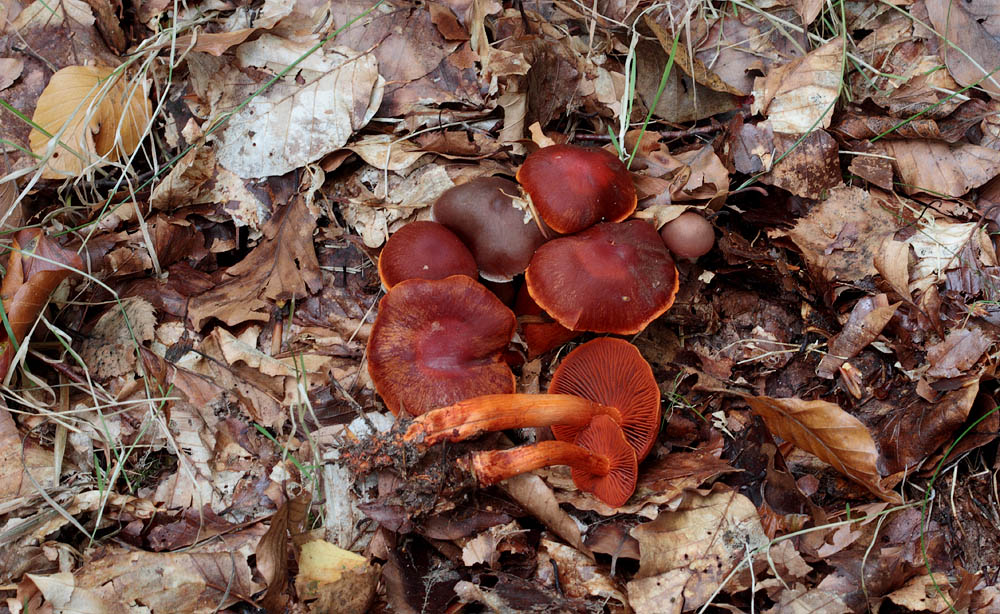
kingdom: Fungi
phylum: Basidiomycota
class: Agaricomycetes
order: Agaricales
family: Cortinariaceae
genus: Cortinarius
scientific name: Cortinarius cinnabarinus
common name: cinnober-slørhat
